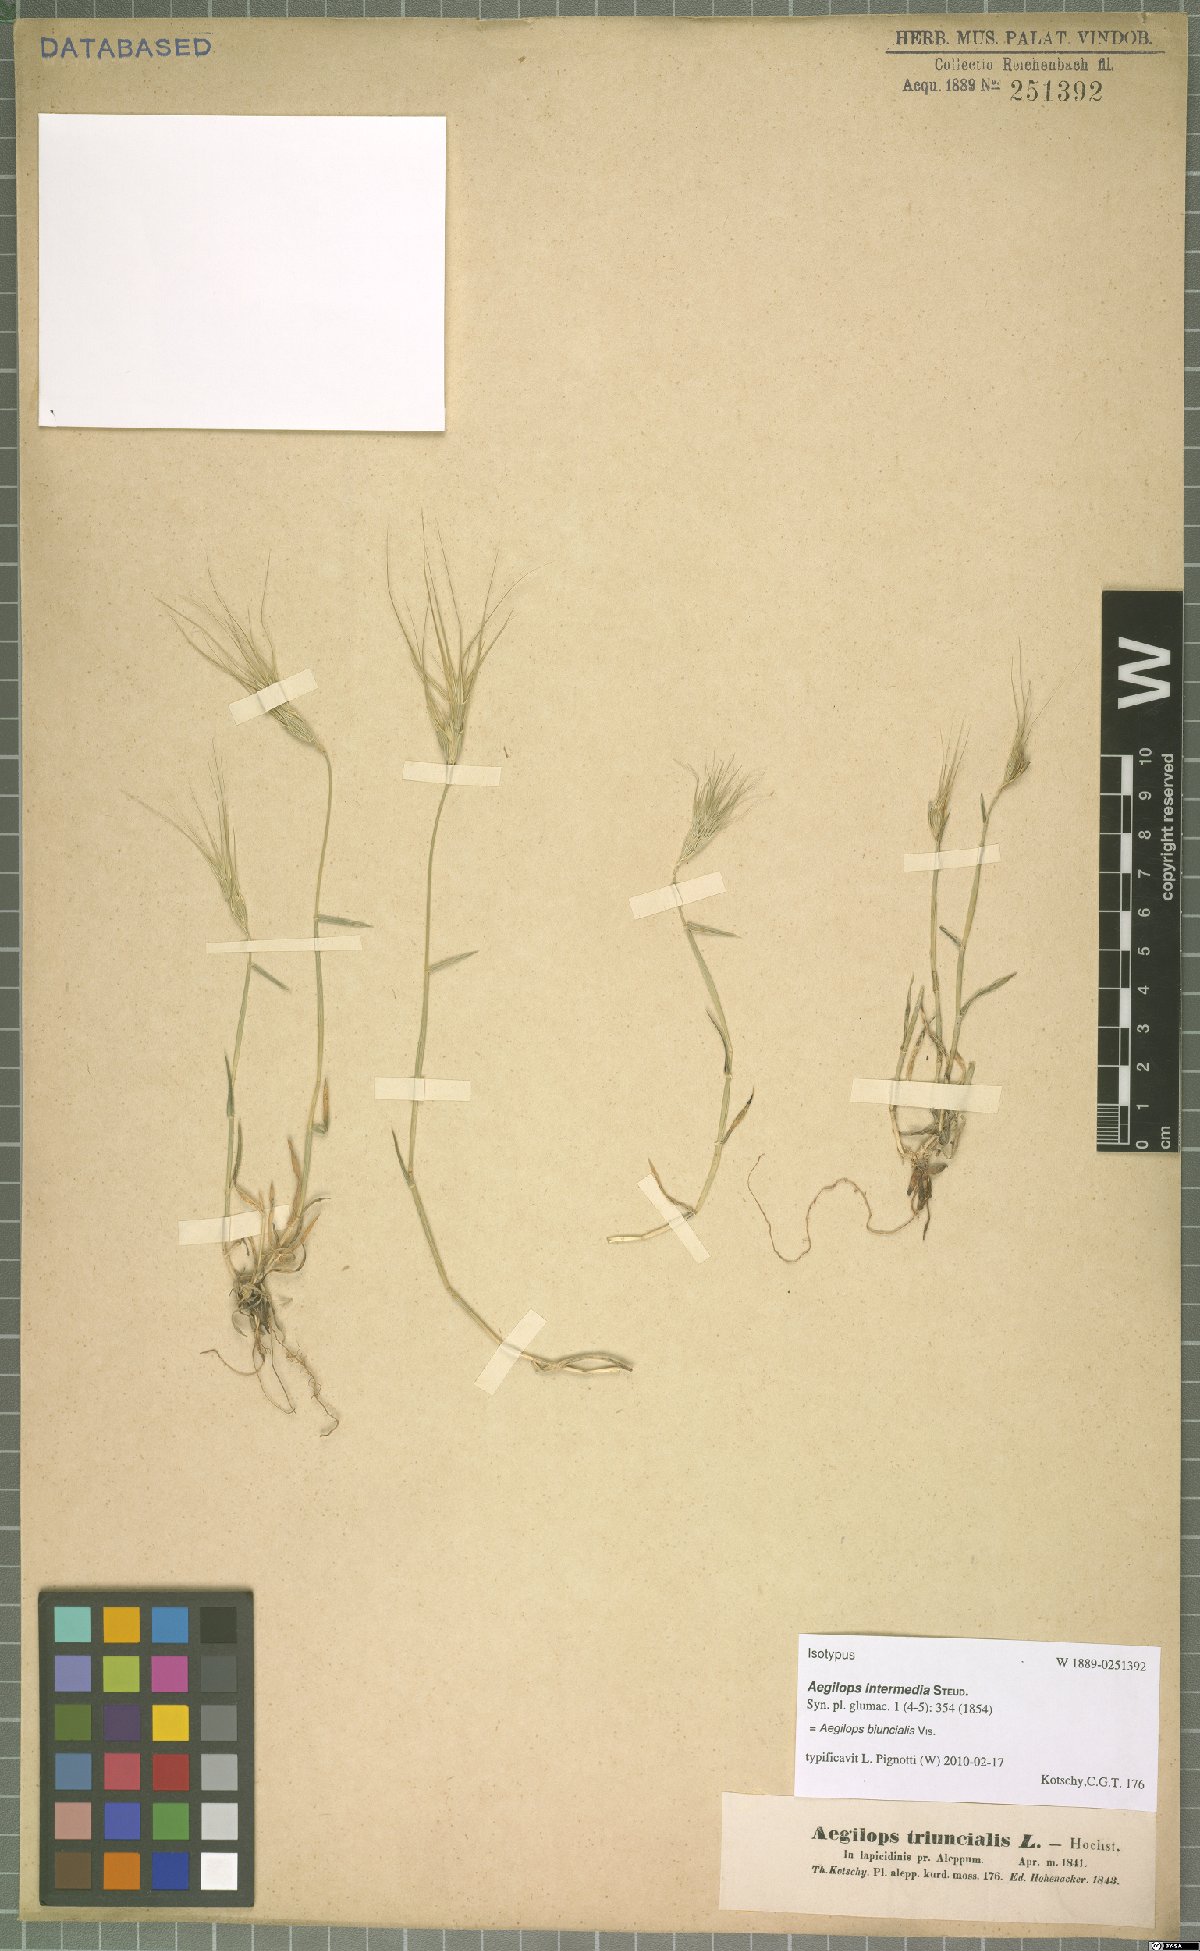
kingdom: Plantae
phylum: Tracheophyta
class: Liliopsida
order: Poales
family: Poaceae
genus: Aegilops
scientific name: Aegilops biuncialis
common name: Mediterranean aegilops
